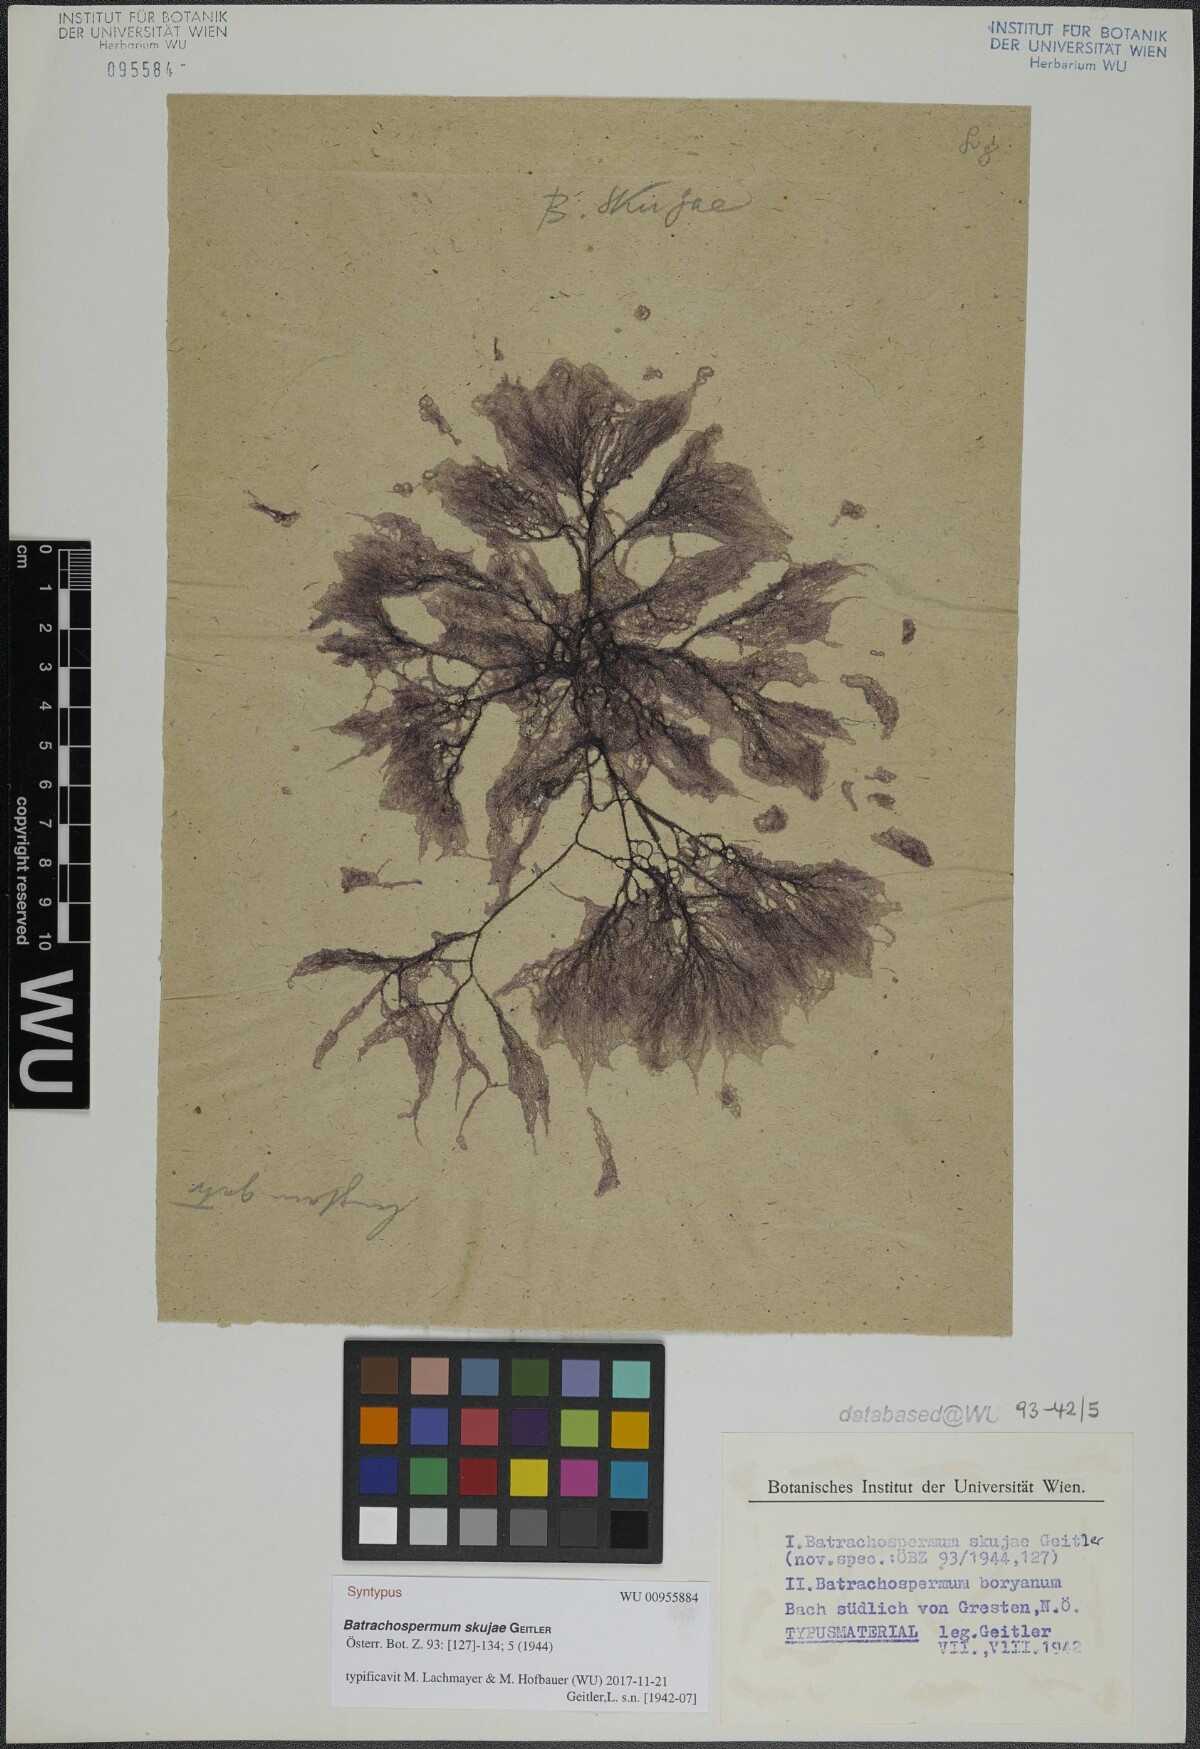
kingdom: Plantae
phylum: Rhodophyta
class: Florideophyceae
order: Batrachospermales
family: Batrachospermaceae
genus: Batrachospermum
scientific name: Batrachospermum gelatinosum
